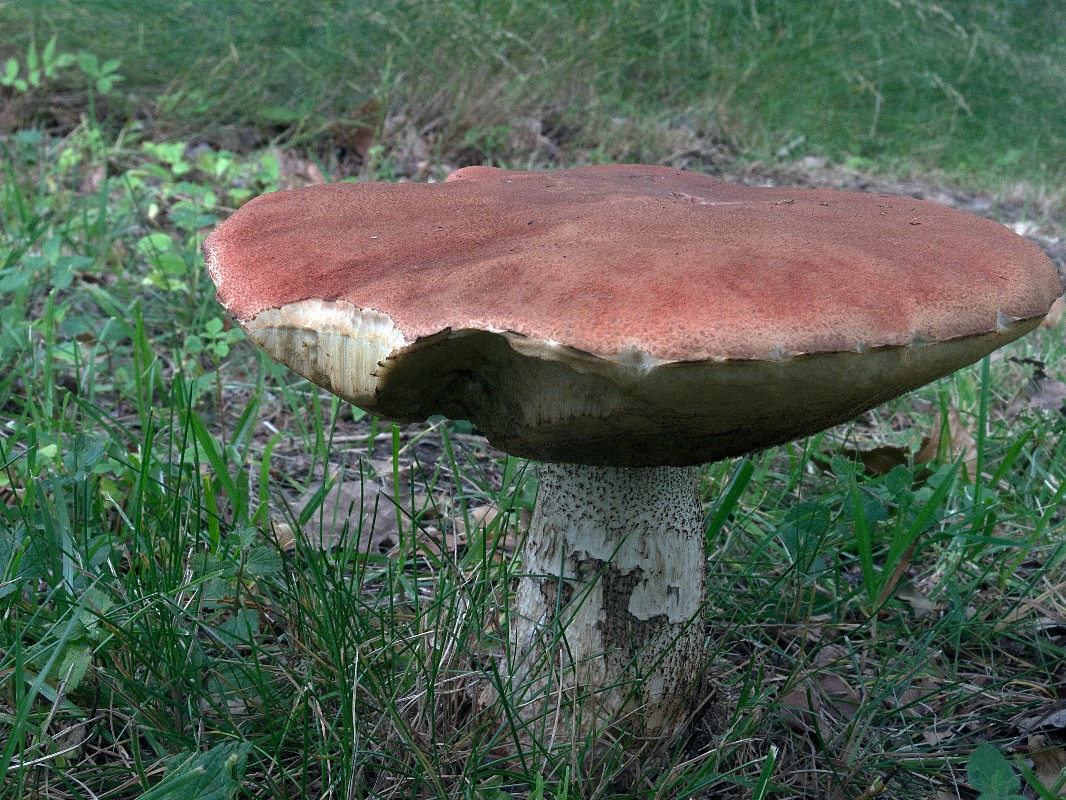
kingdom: Fungi
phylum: Basidiomycota
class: Agaricomycetes
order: Boletales
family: Boletaceae
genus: Leccinum
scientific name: Leccinum aurantiacum
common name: rustrød skælrørhat
